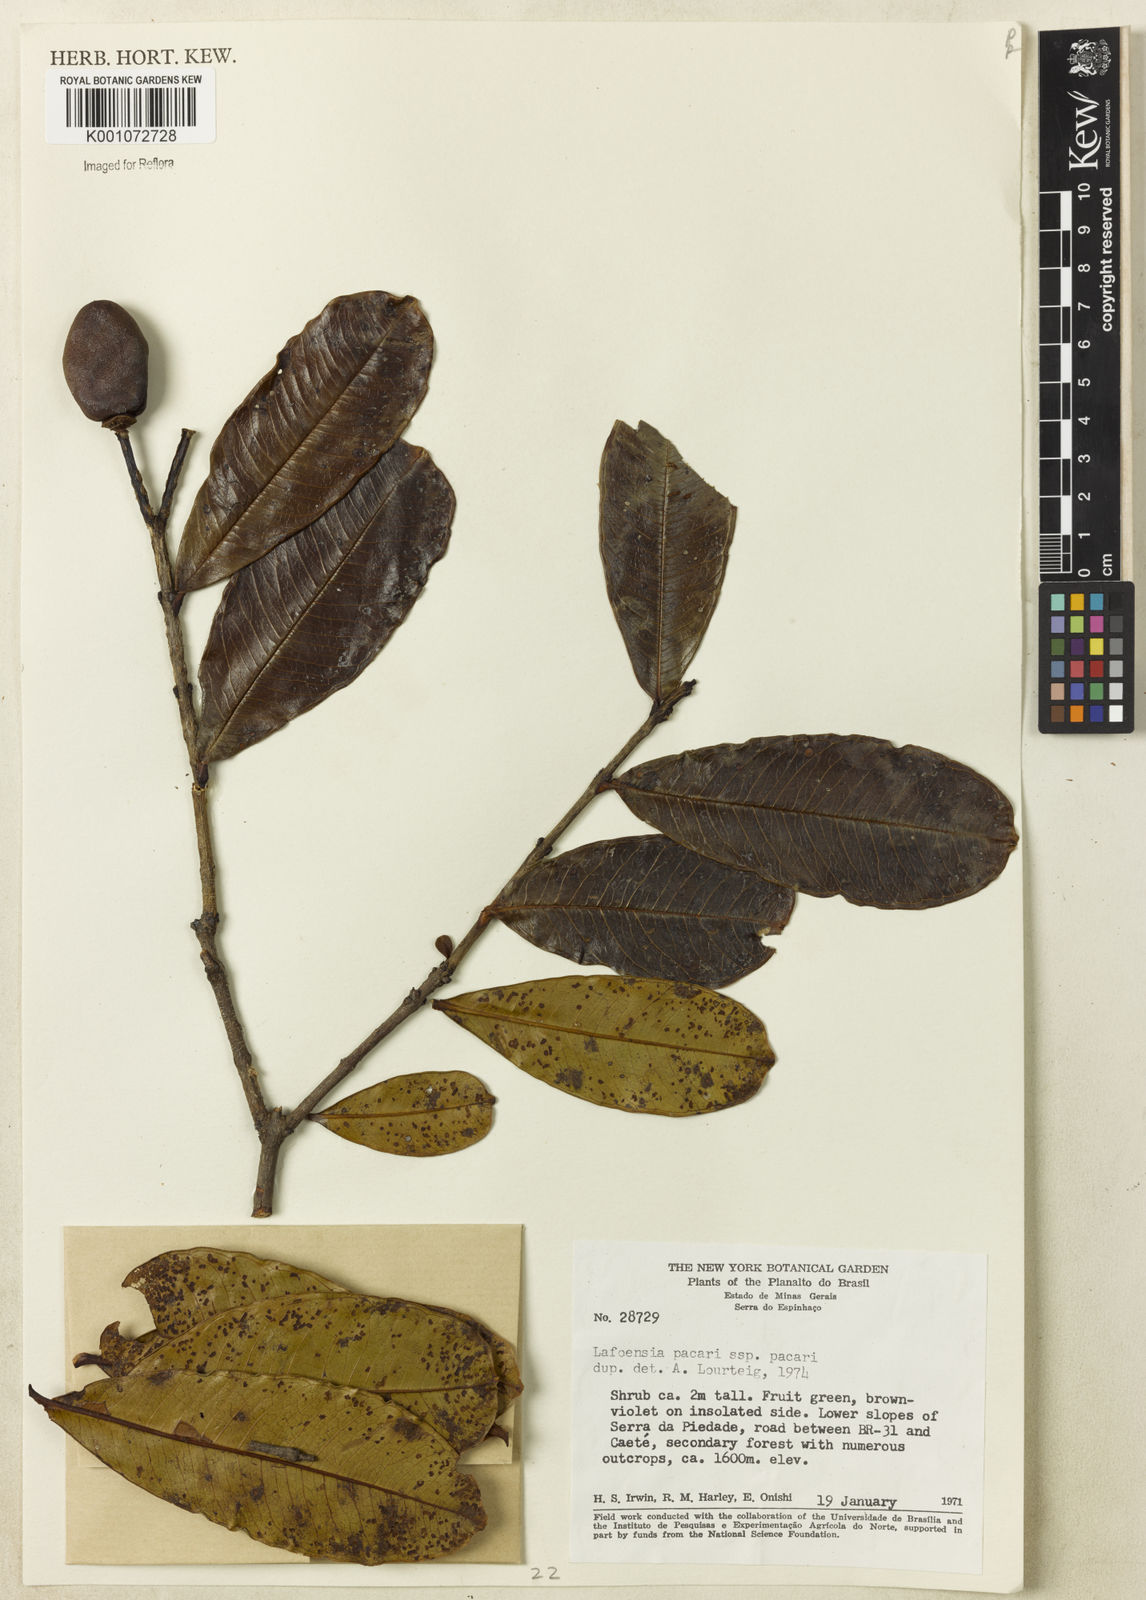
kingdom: Plantae
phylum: Tracheophyta
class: Magnoliopsida
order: Myrtales
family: Lythraceae
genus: Lafoensia
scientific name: Lafoensia pacari
